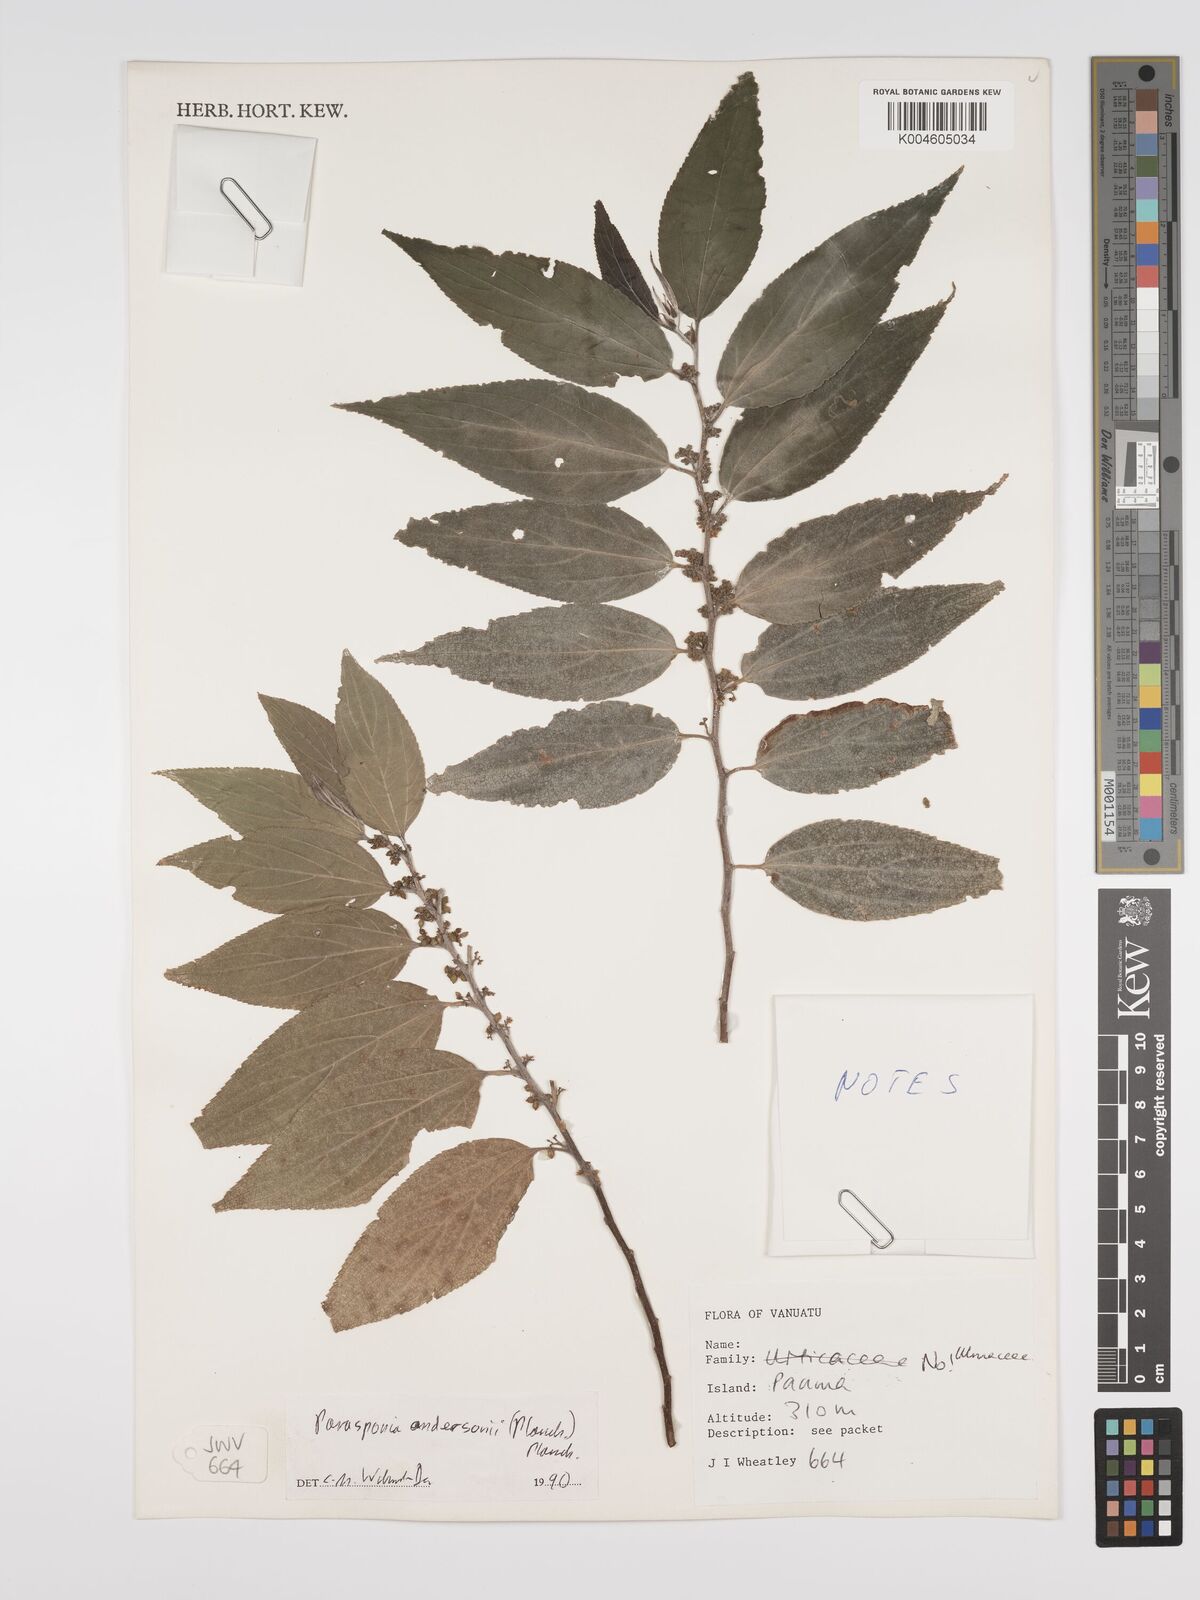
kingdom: Plantae
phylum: Tracheophyta
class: Magnoliopsida
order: Rosales
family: Cannabaceae
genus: Trema
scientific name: Trema andersonii
